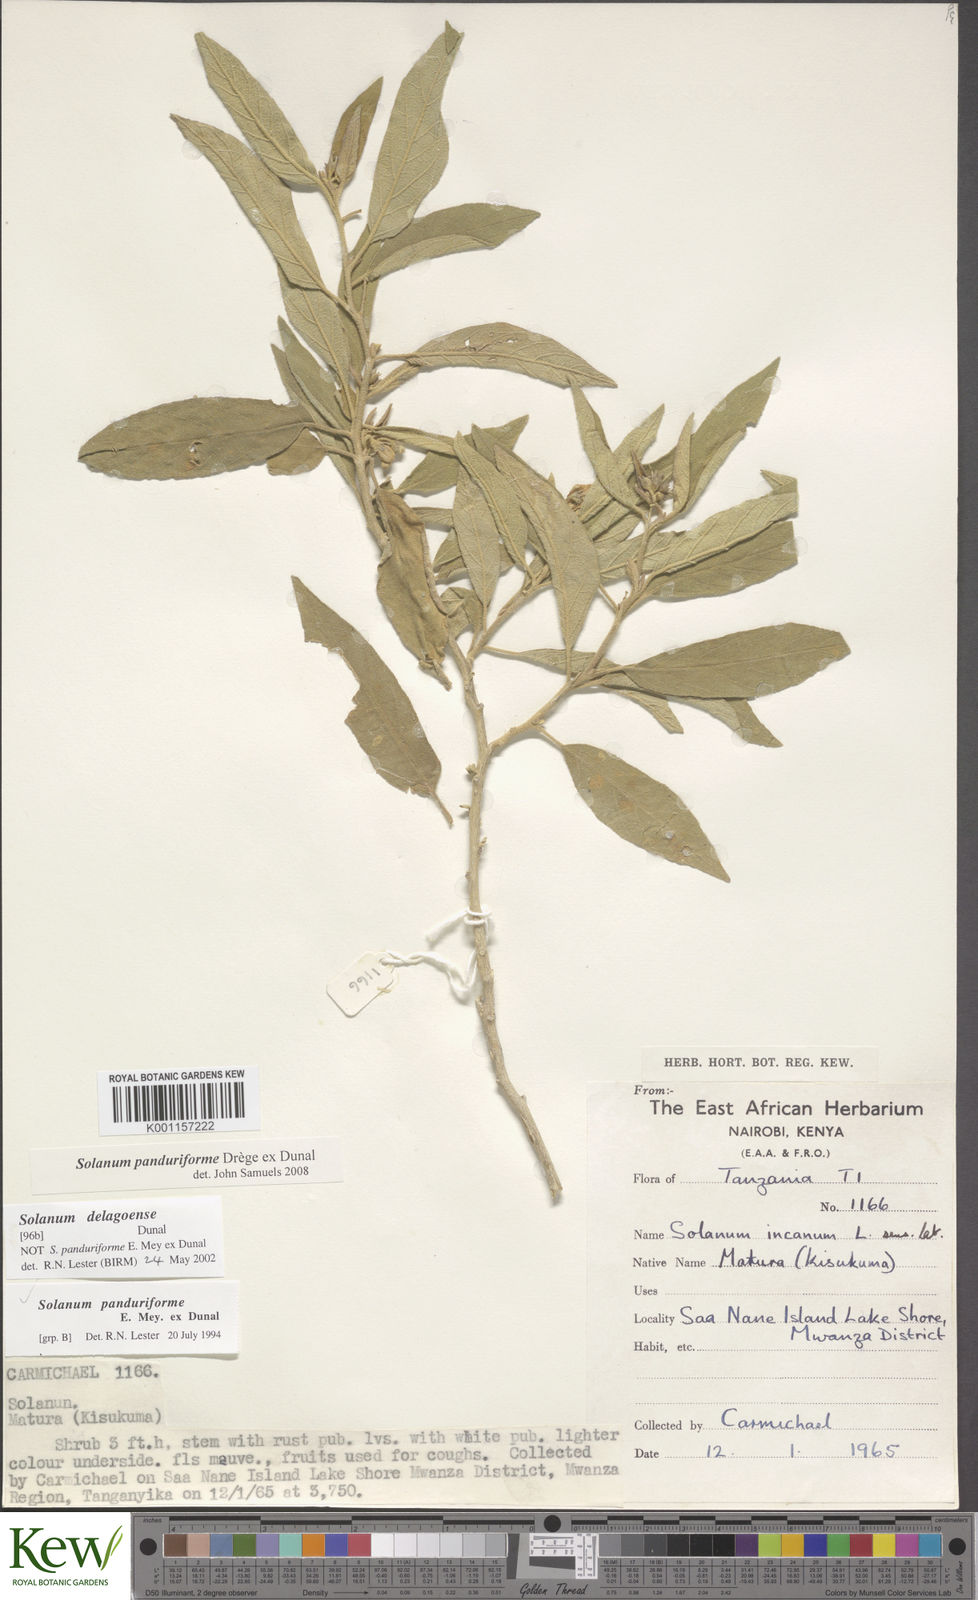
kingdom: Plantae
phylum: Tracheophyta
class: Magnoliopsida
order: Solanales
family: Solanaceae
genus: Solanum
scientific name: Solanum campylacanthum
